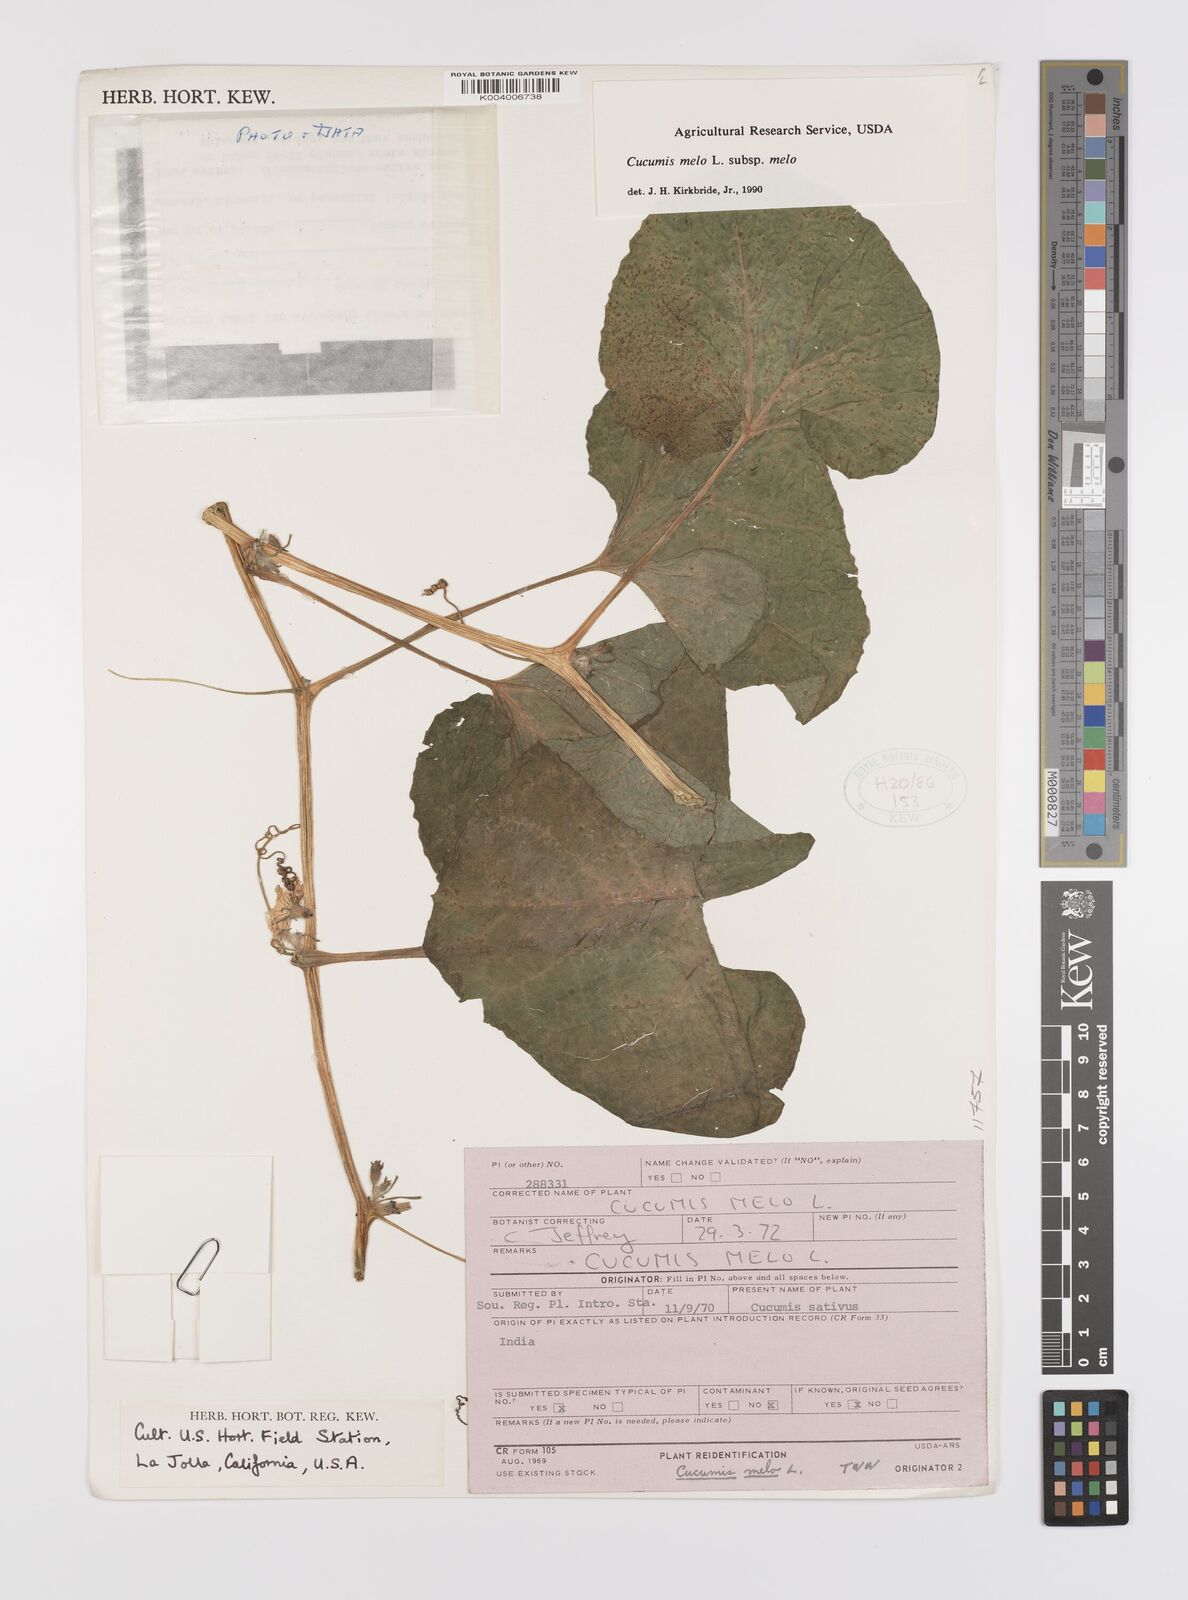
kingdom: Plantae
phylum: Tracheophyta
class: Magnoliopsida
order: Cucurbitales
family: Cucurbitaceae
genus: Cucumis
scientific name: Cucumis melo
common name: Melon
